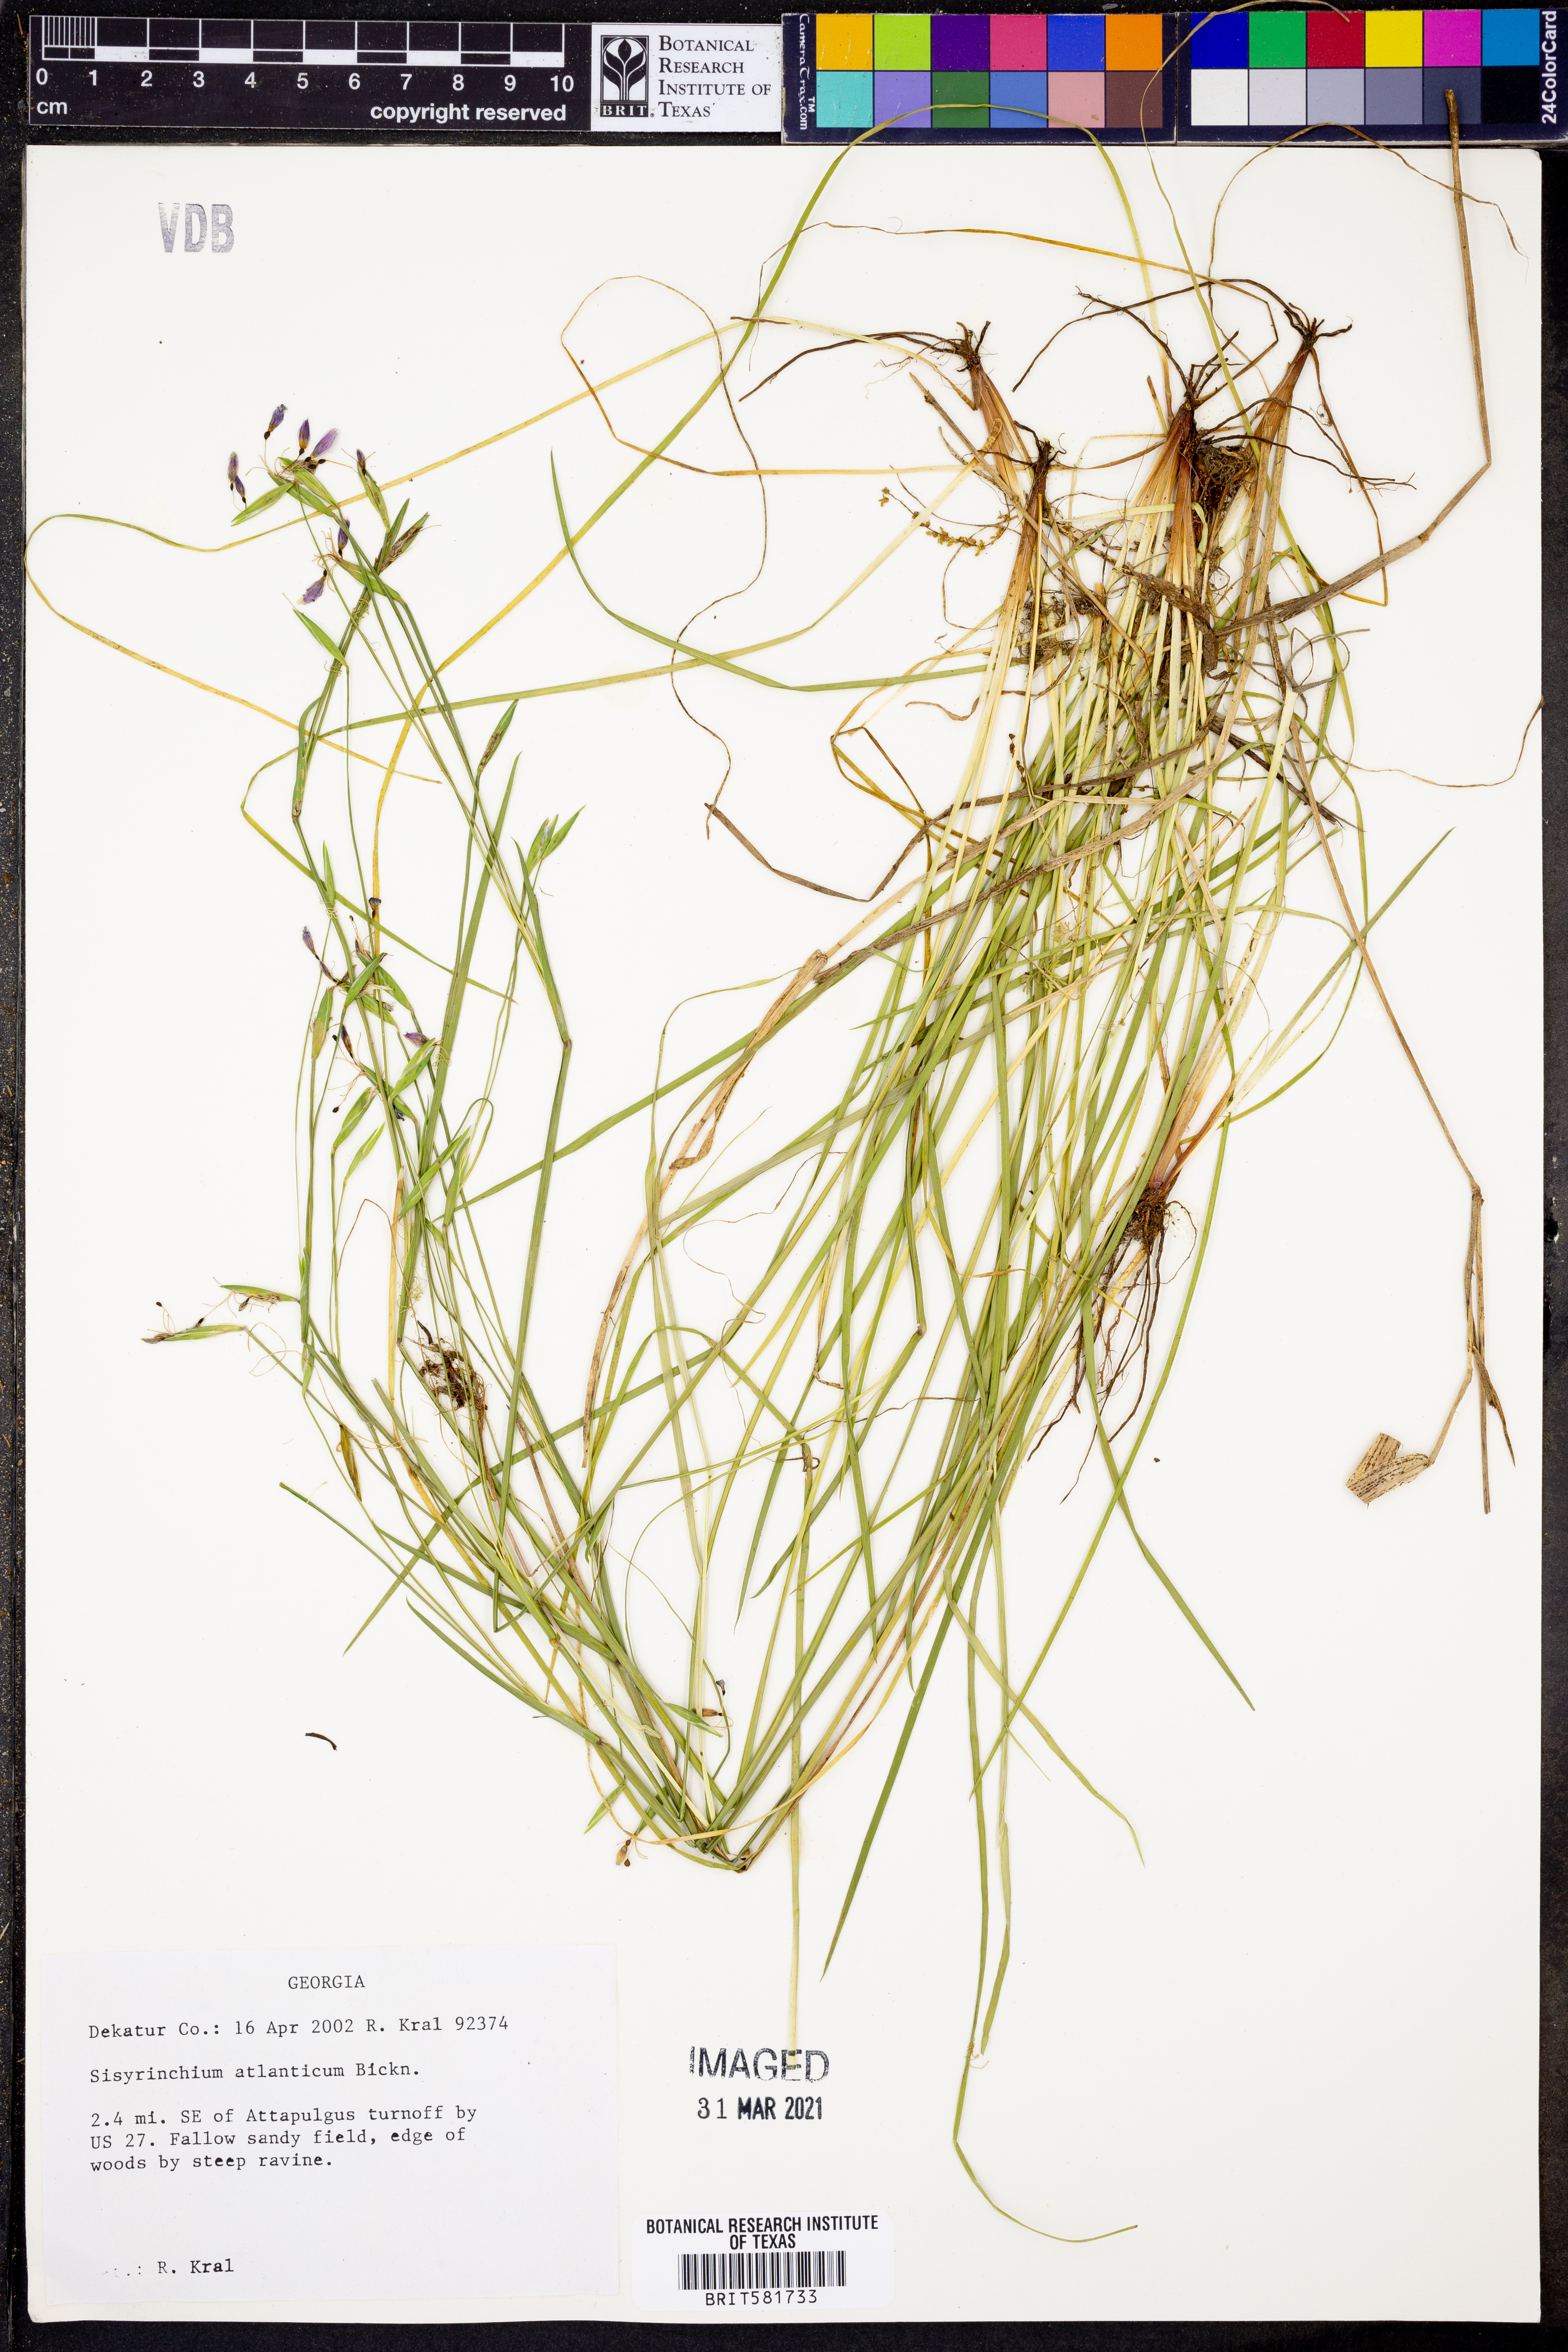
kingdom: Plantae
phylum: Tracheophyta
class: Liliopsida
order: Asparagales
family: Iridaceae
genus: Sisyrinchium
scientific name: Sisyrinchium atlanticum
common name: Eastern blue-eyed-grass
